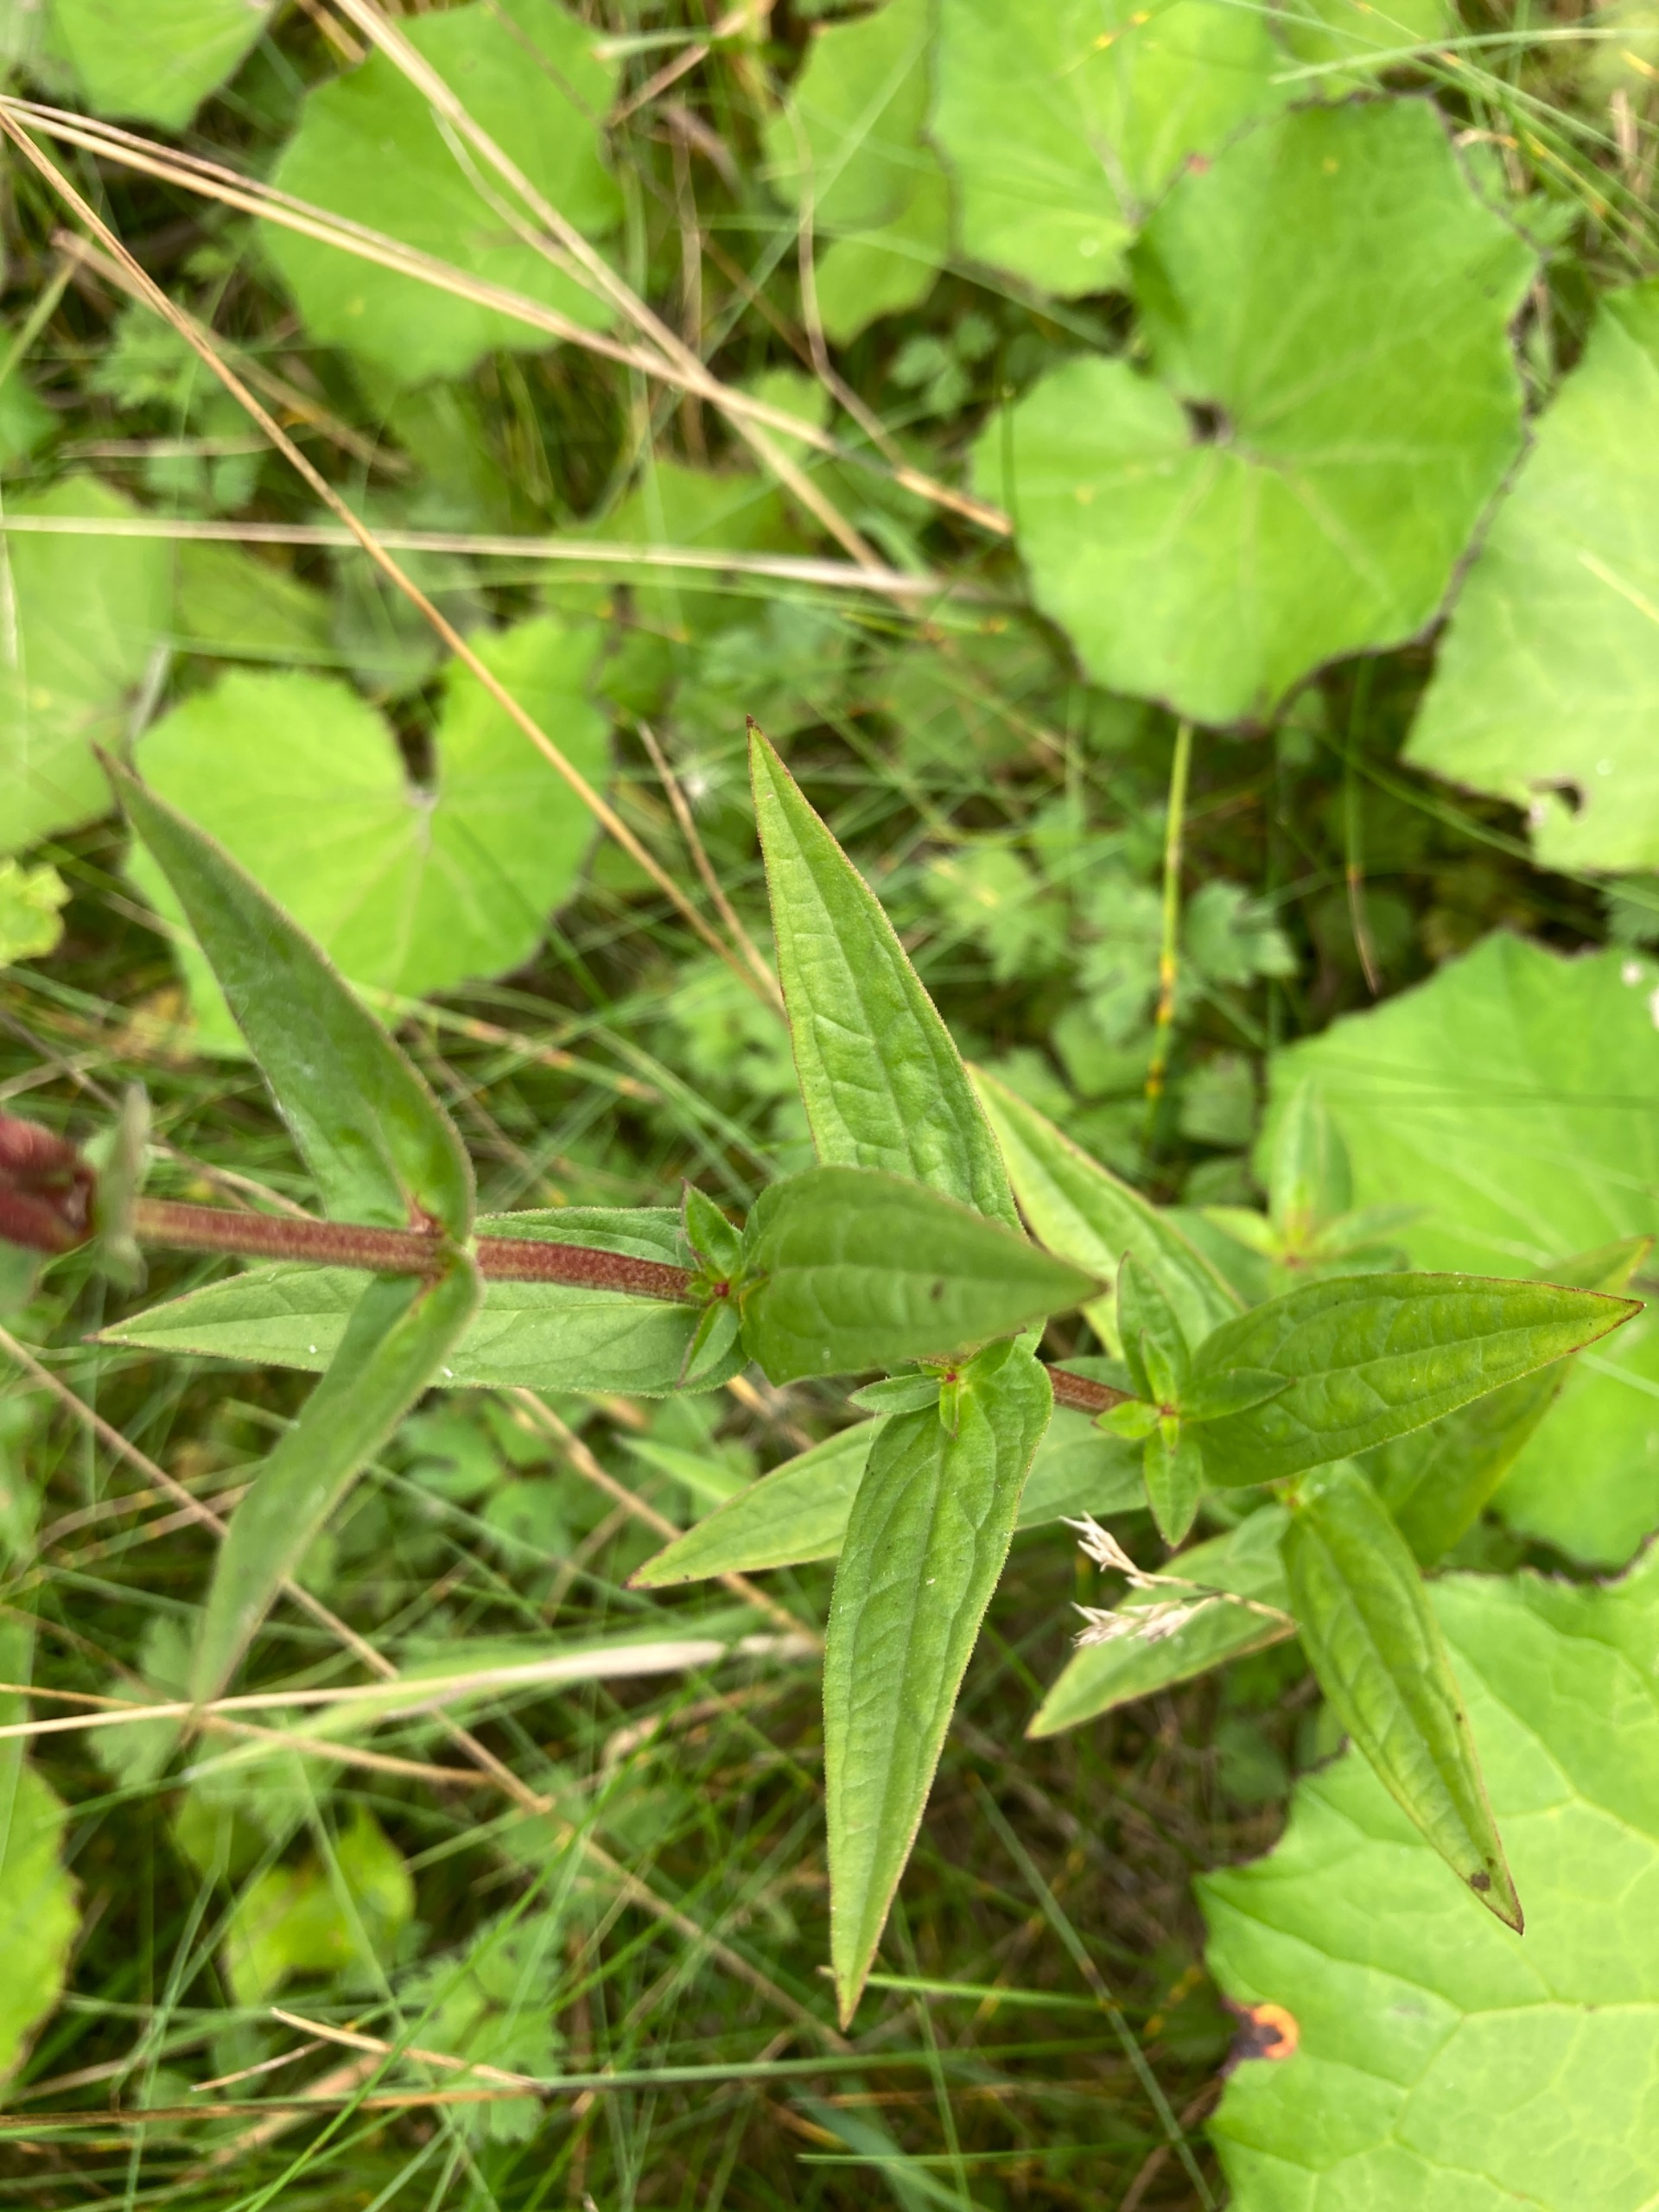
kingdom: Plantae
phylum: Tracheophyta
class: Magnoliopsida
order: Myrtales
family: Lythraceae
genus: Lythrum
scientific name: Lythrum salicaria
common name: Kattehale
